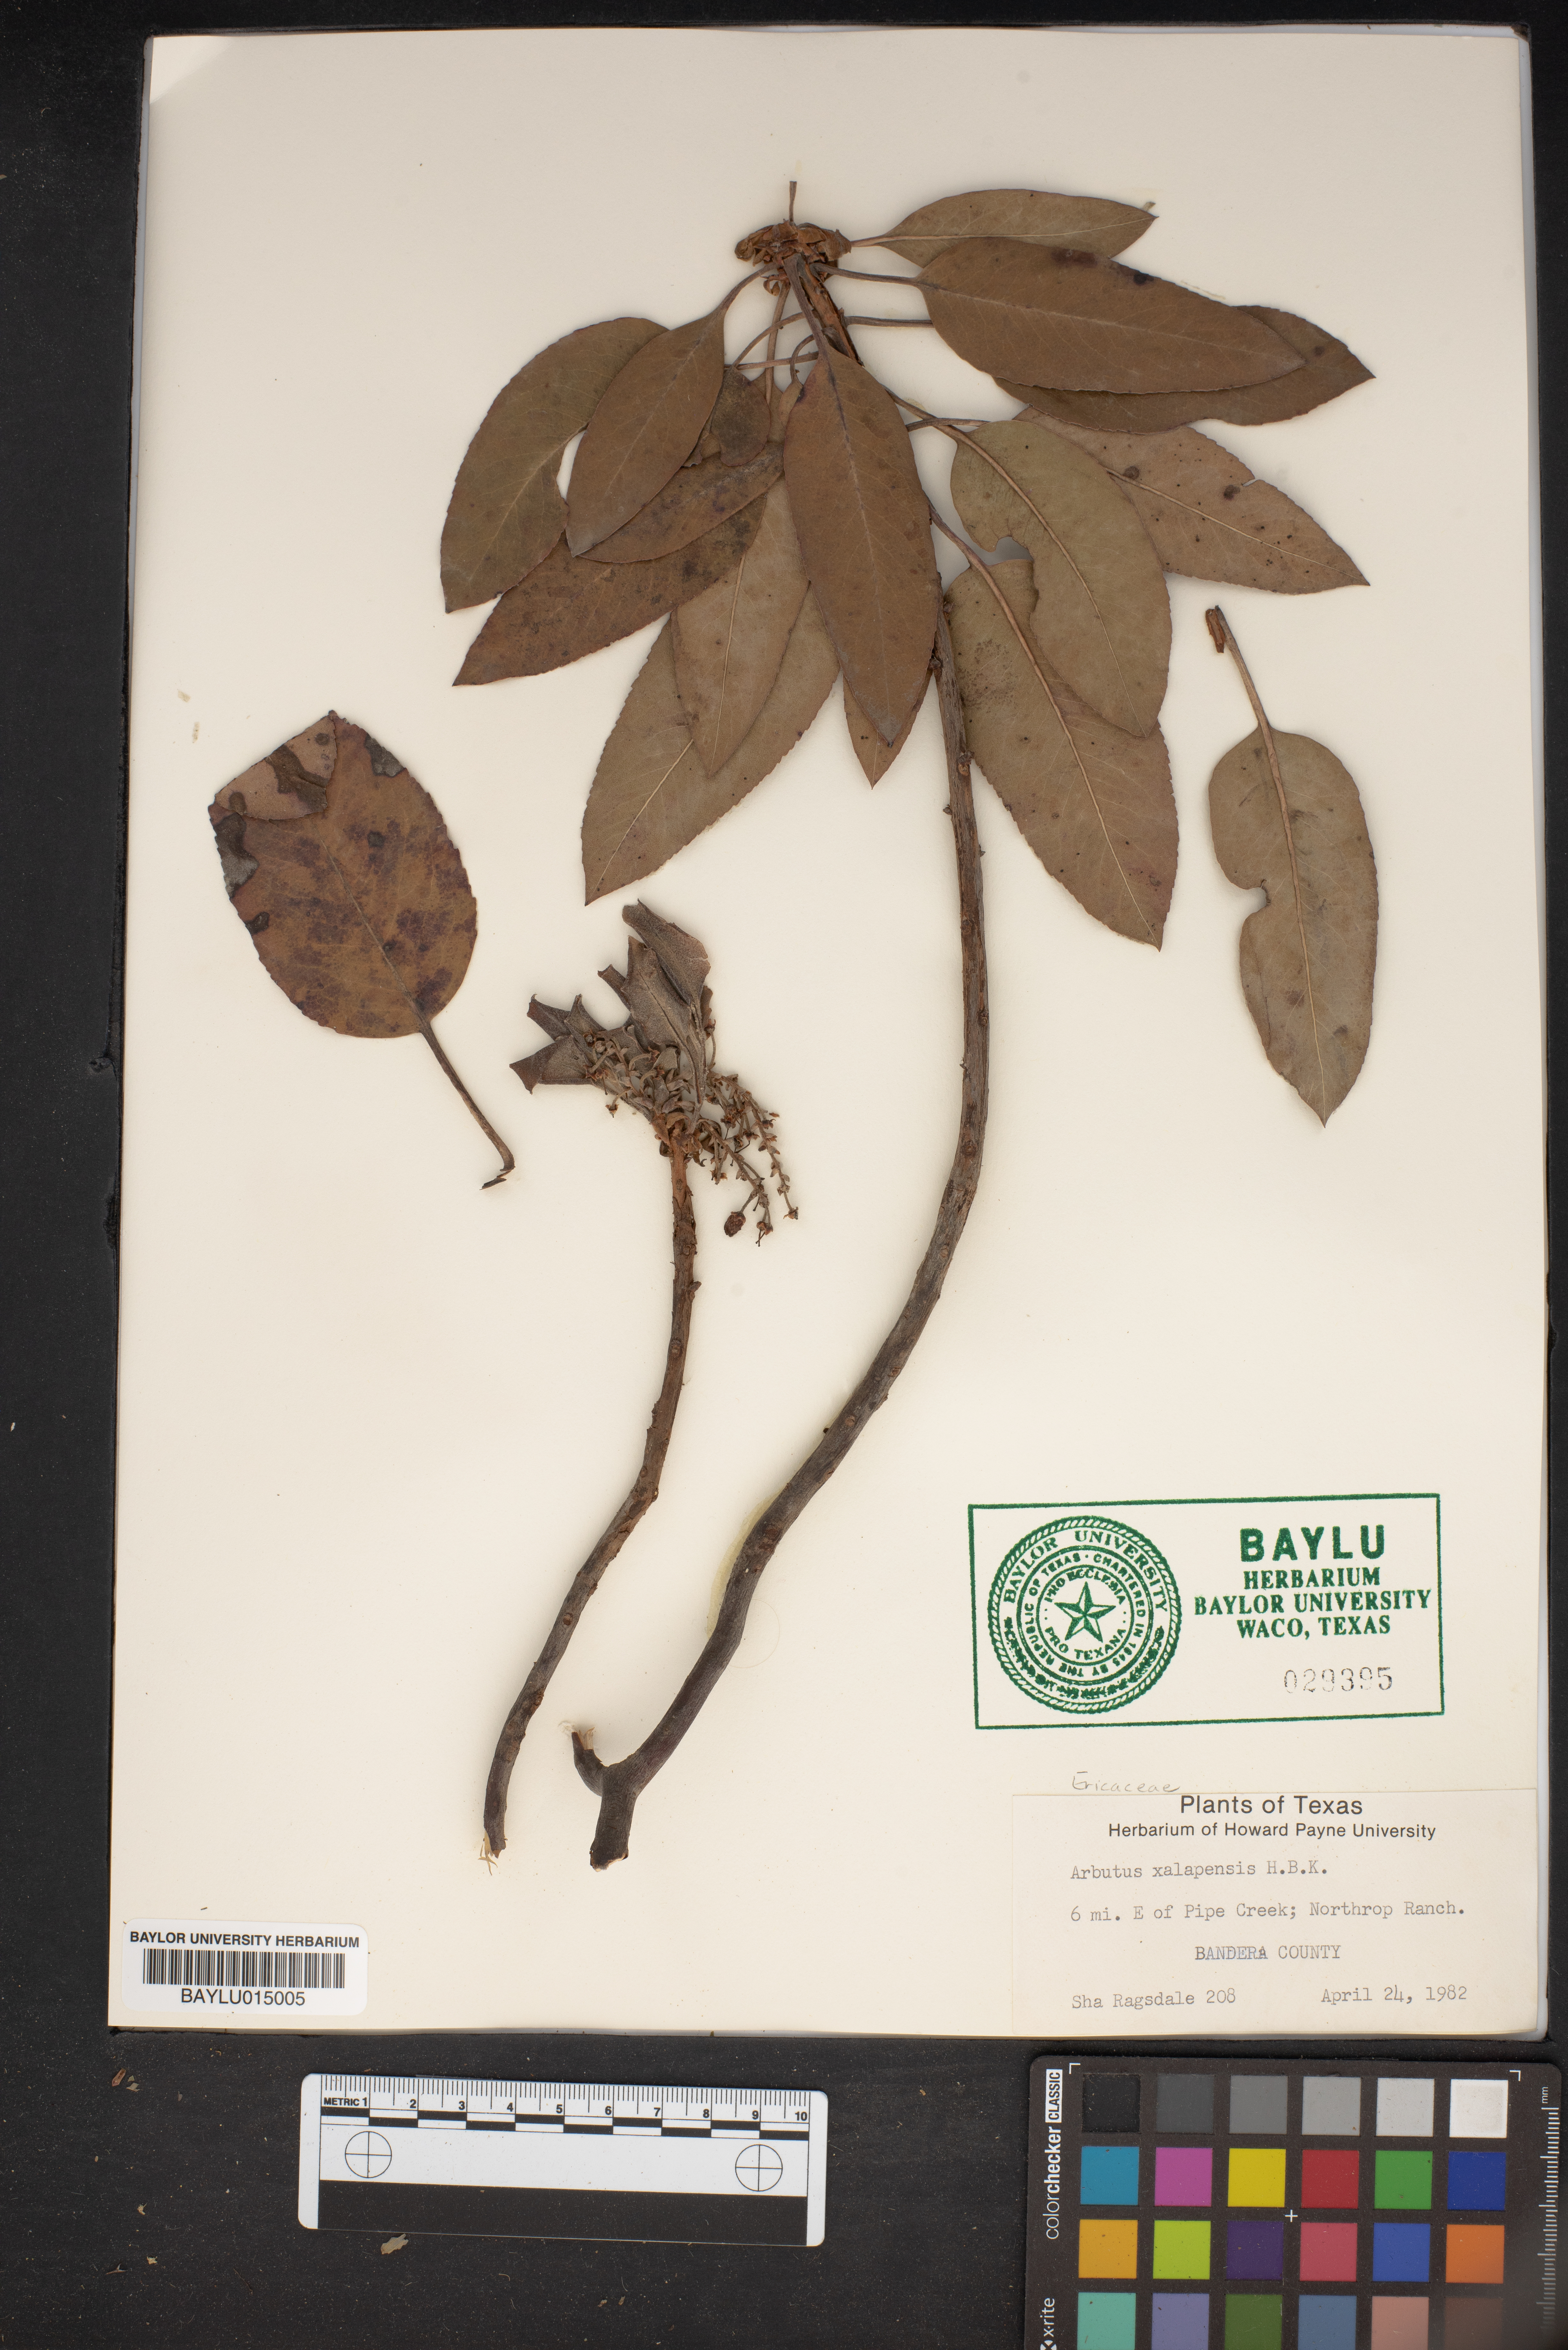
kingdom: Plantae
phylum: Tracheophyta
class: Magnoliopsida
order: Ericales
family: Ericaceae
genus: Arbutus
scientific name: Arbutus xalapensis
